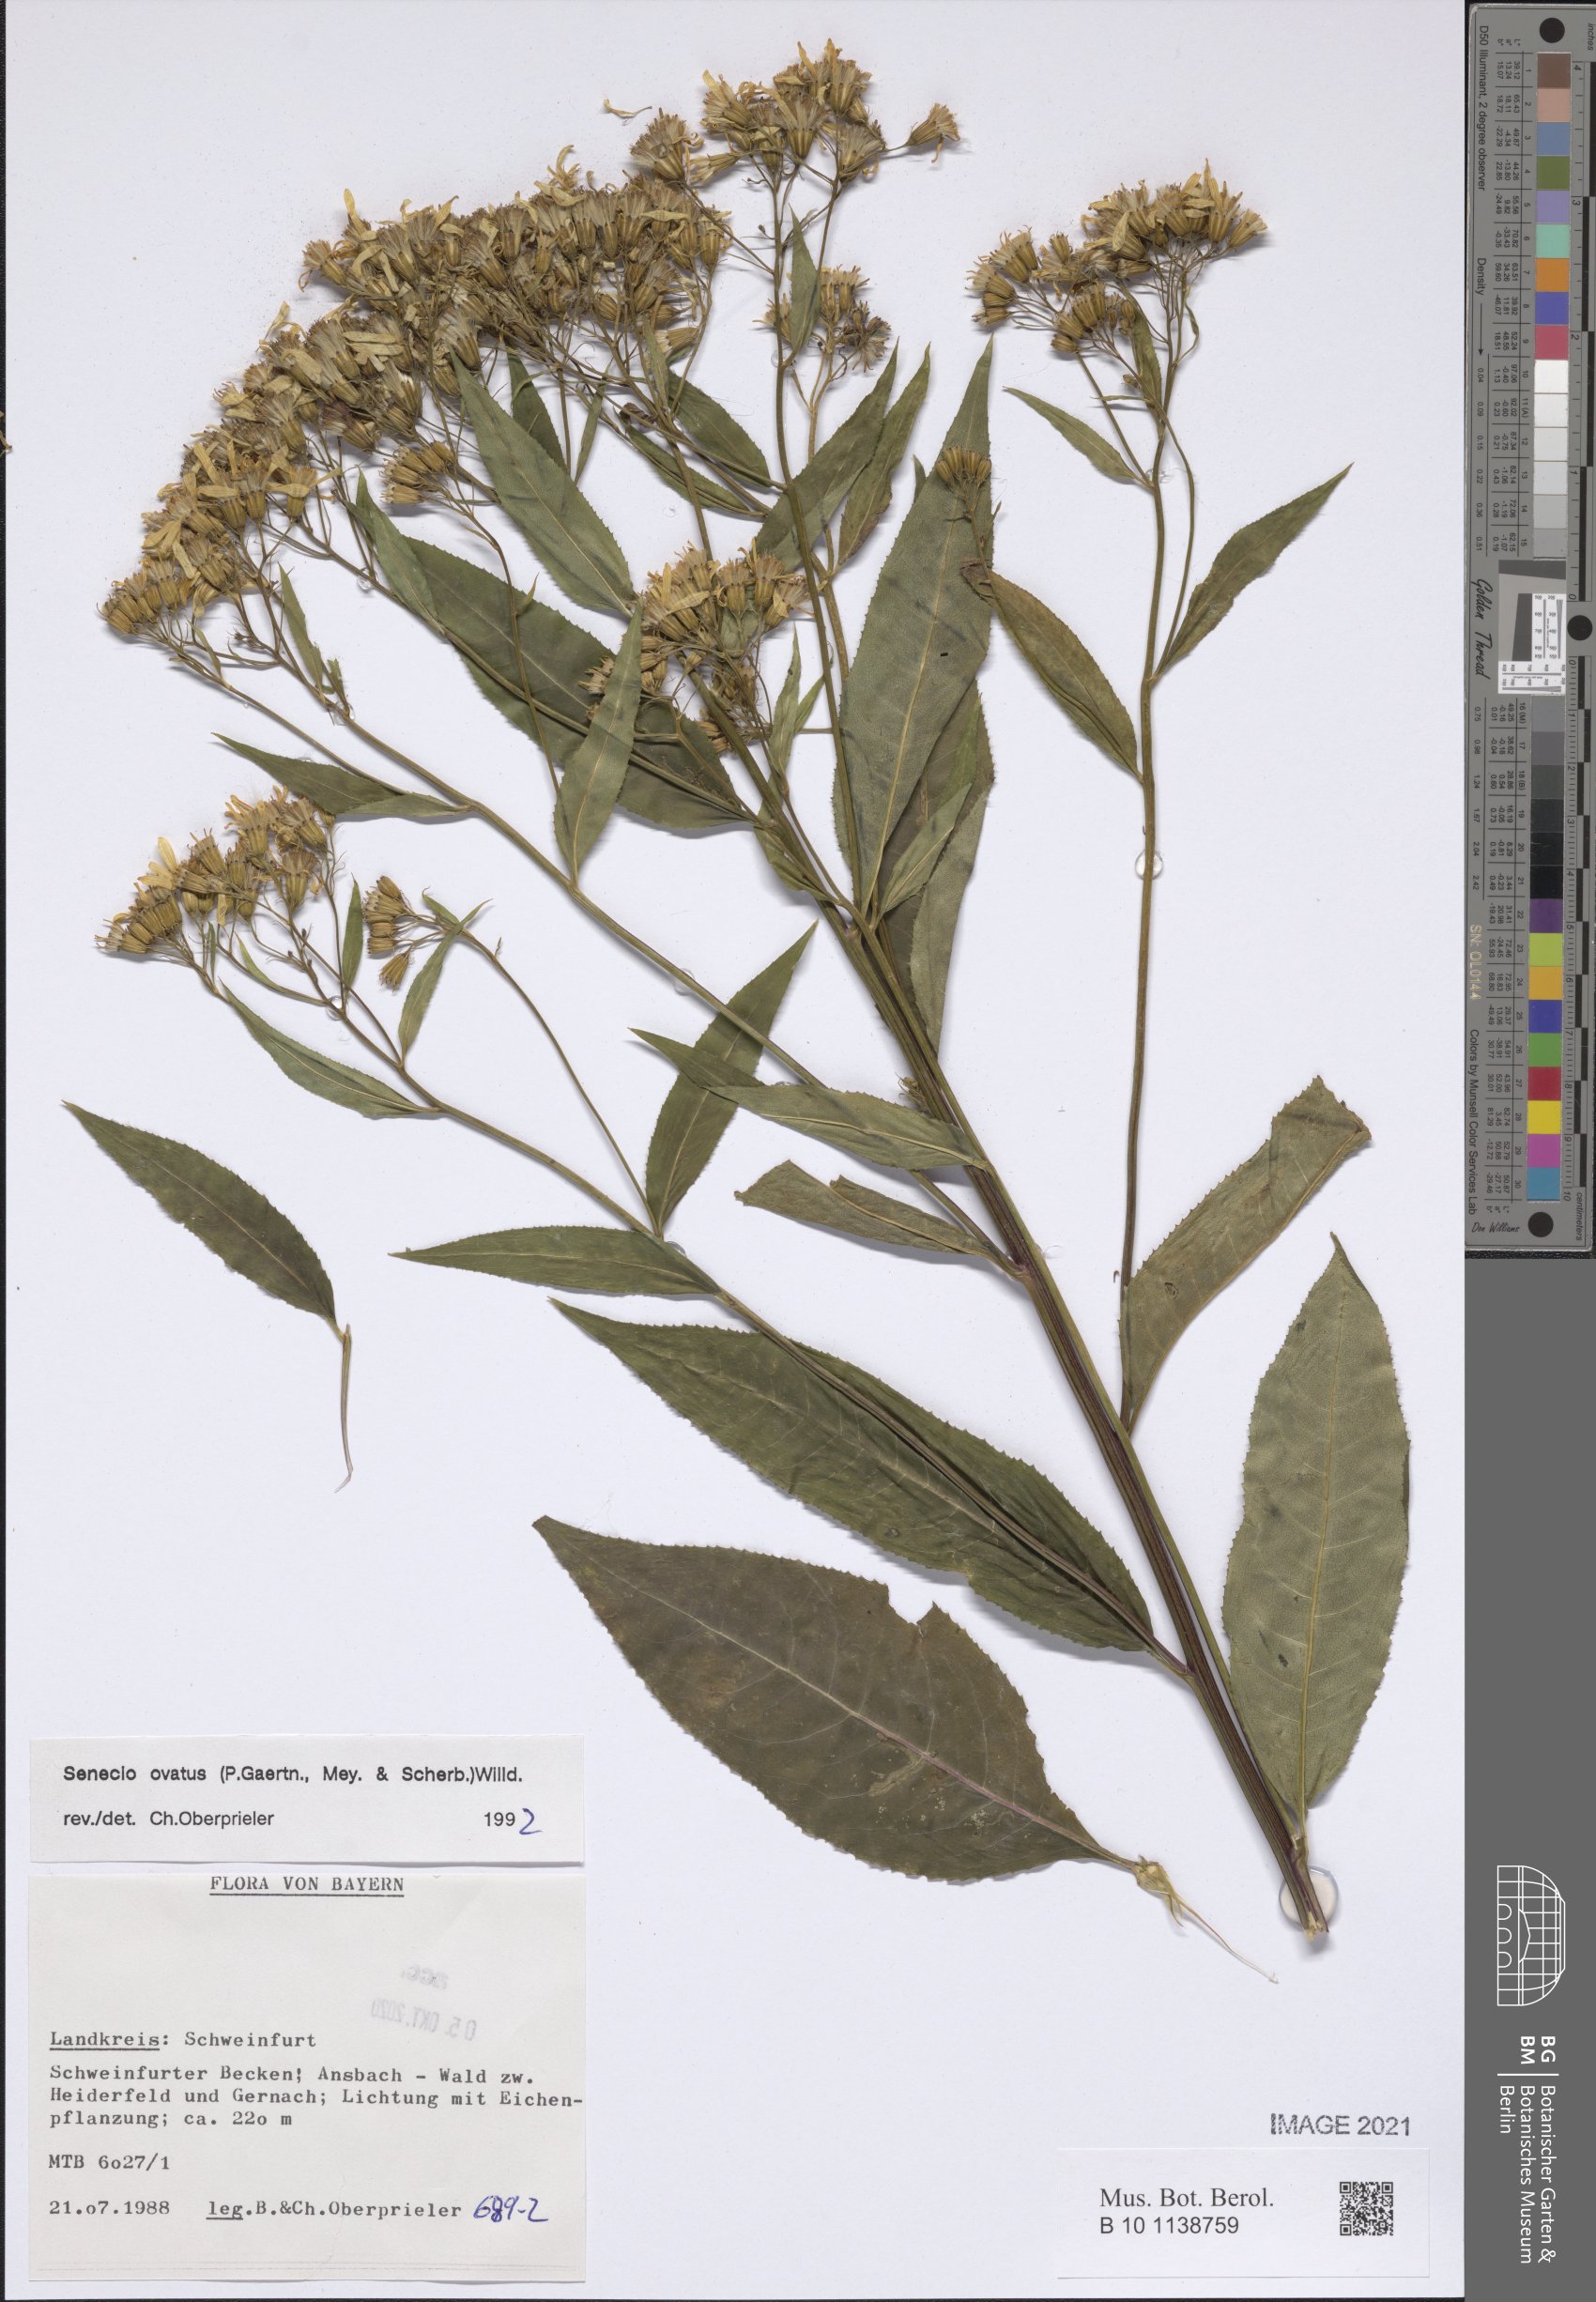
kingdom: Plantae
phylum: Tracheophyta
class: Magnoliopsida
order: Asterales
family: Asteraceae
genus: Senecio
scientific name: Senecio ovatus
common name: Wood ragwort
